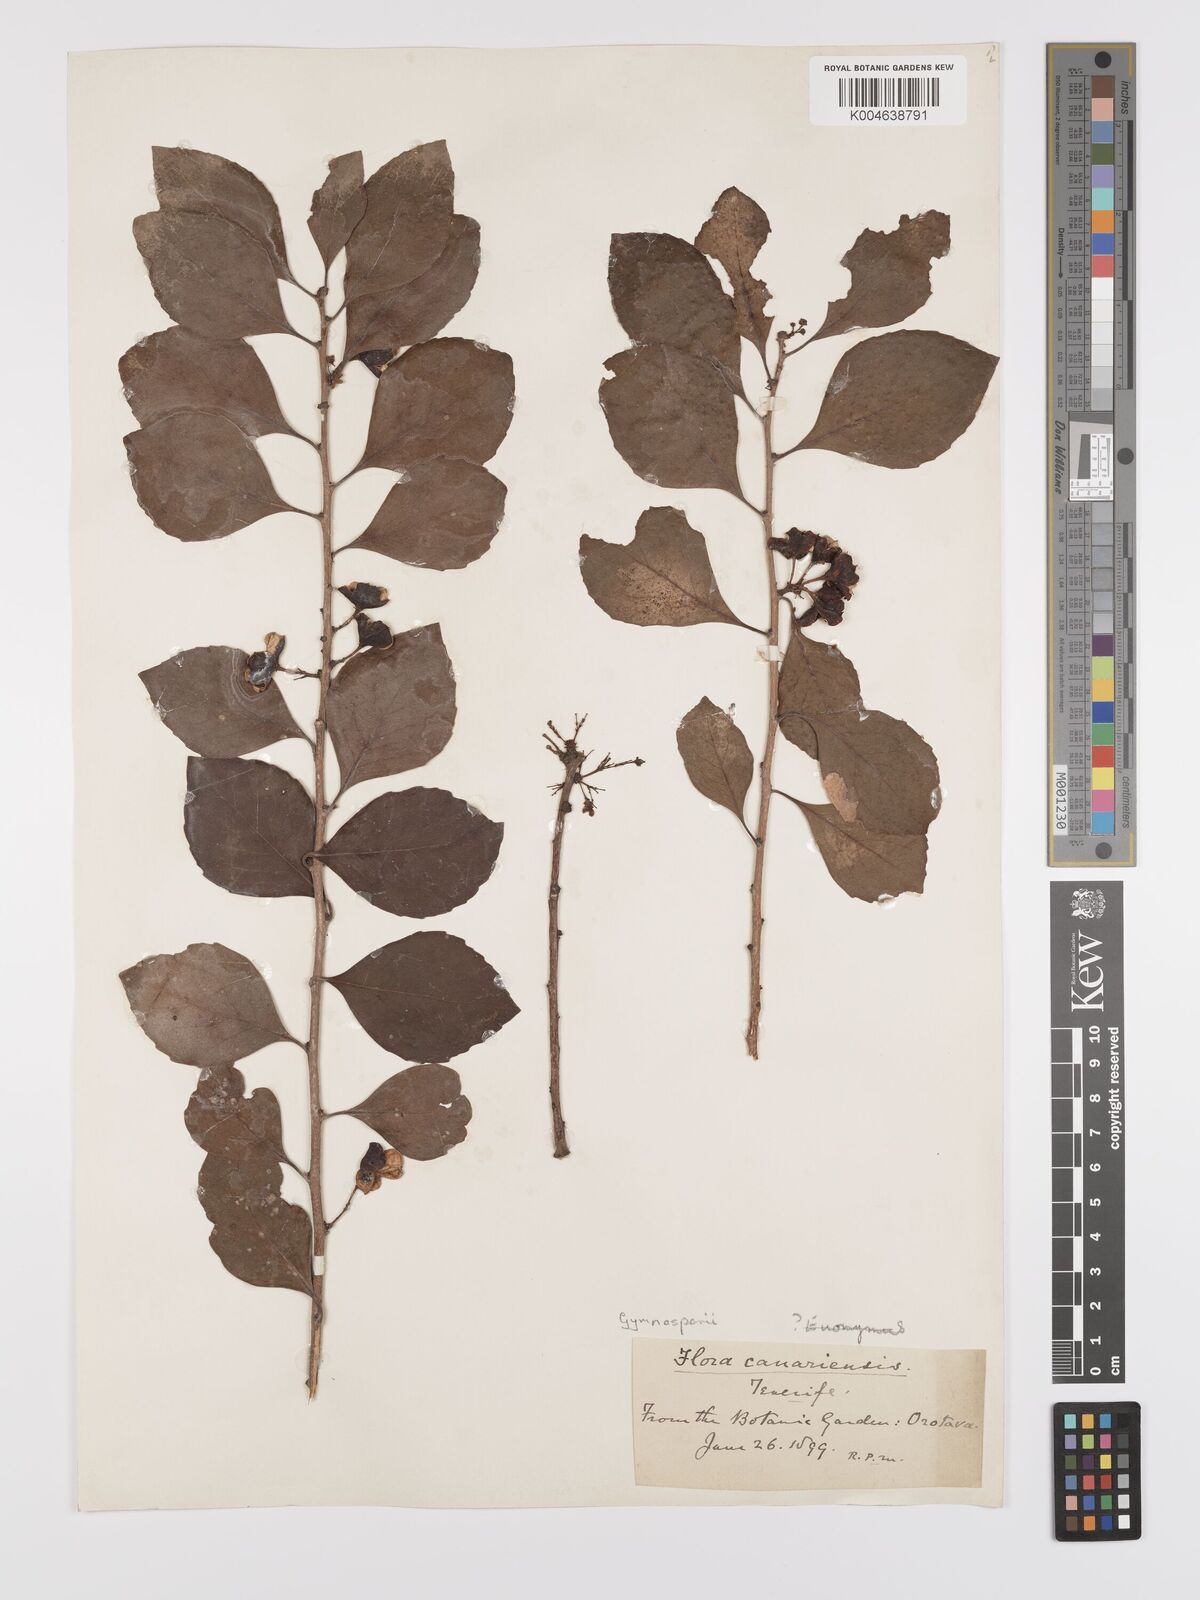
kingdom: Plantae
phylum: Tracheophyta
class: Magnoliopsida
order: Celastrales
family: Celastraceae
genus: Gymnosporia
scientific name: Gymnosporia cassinoides
